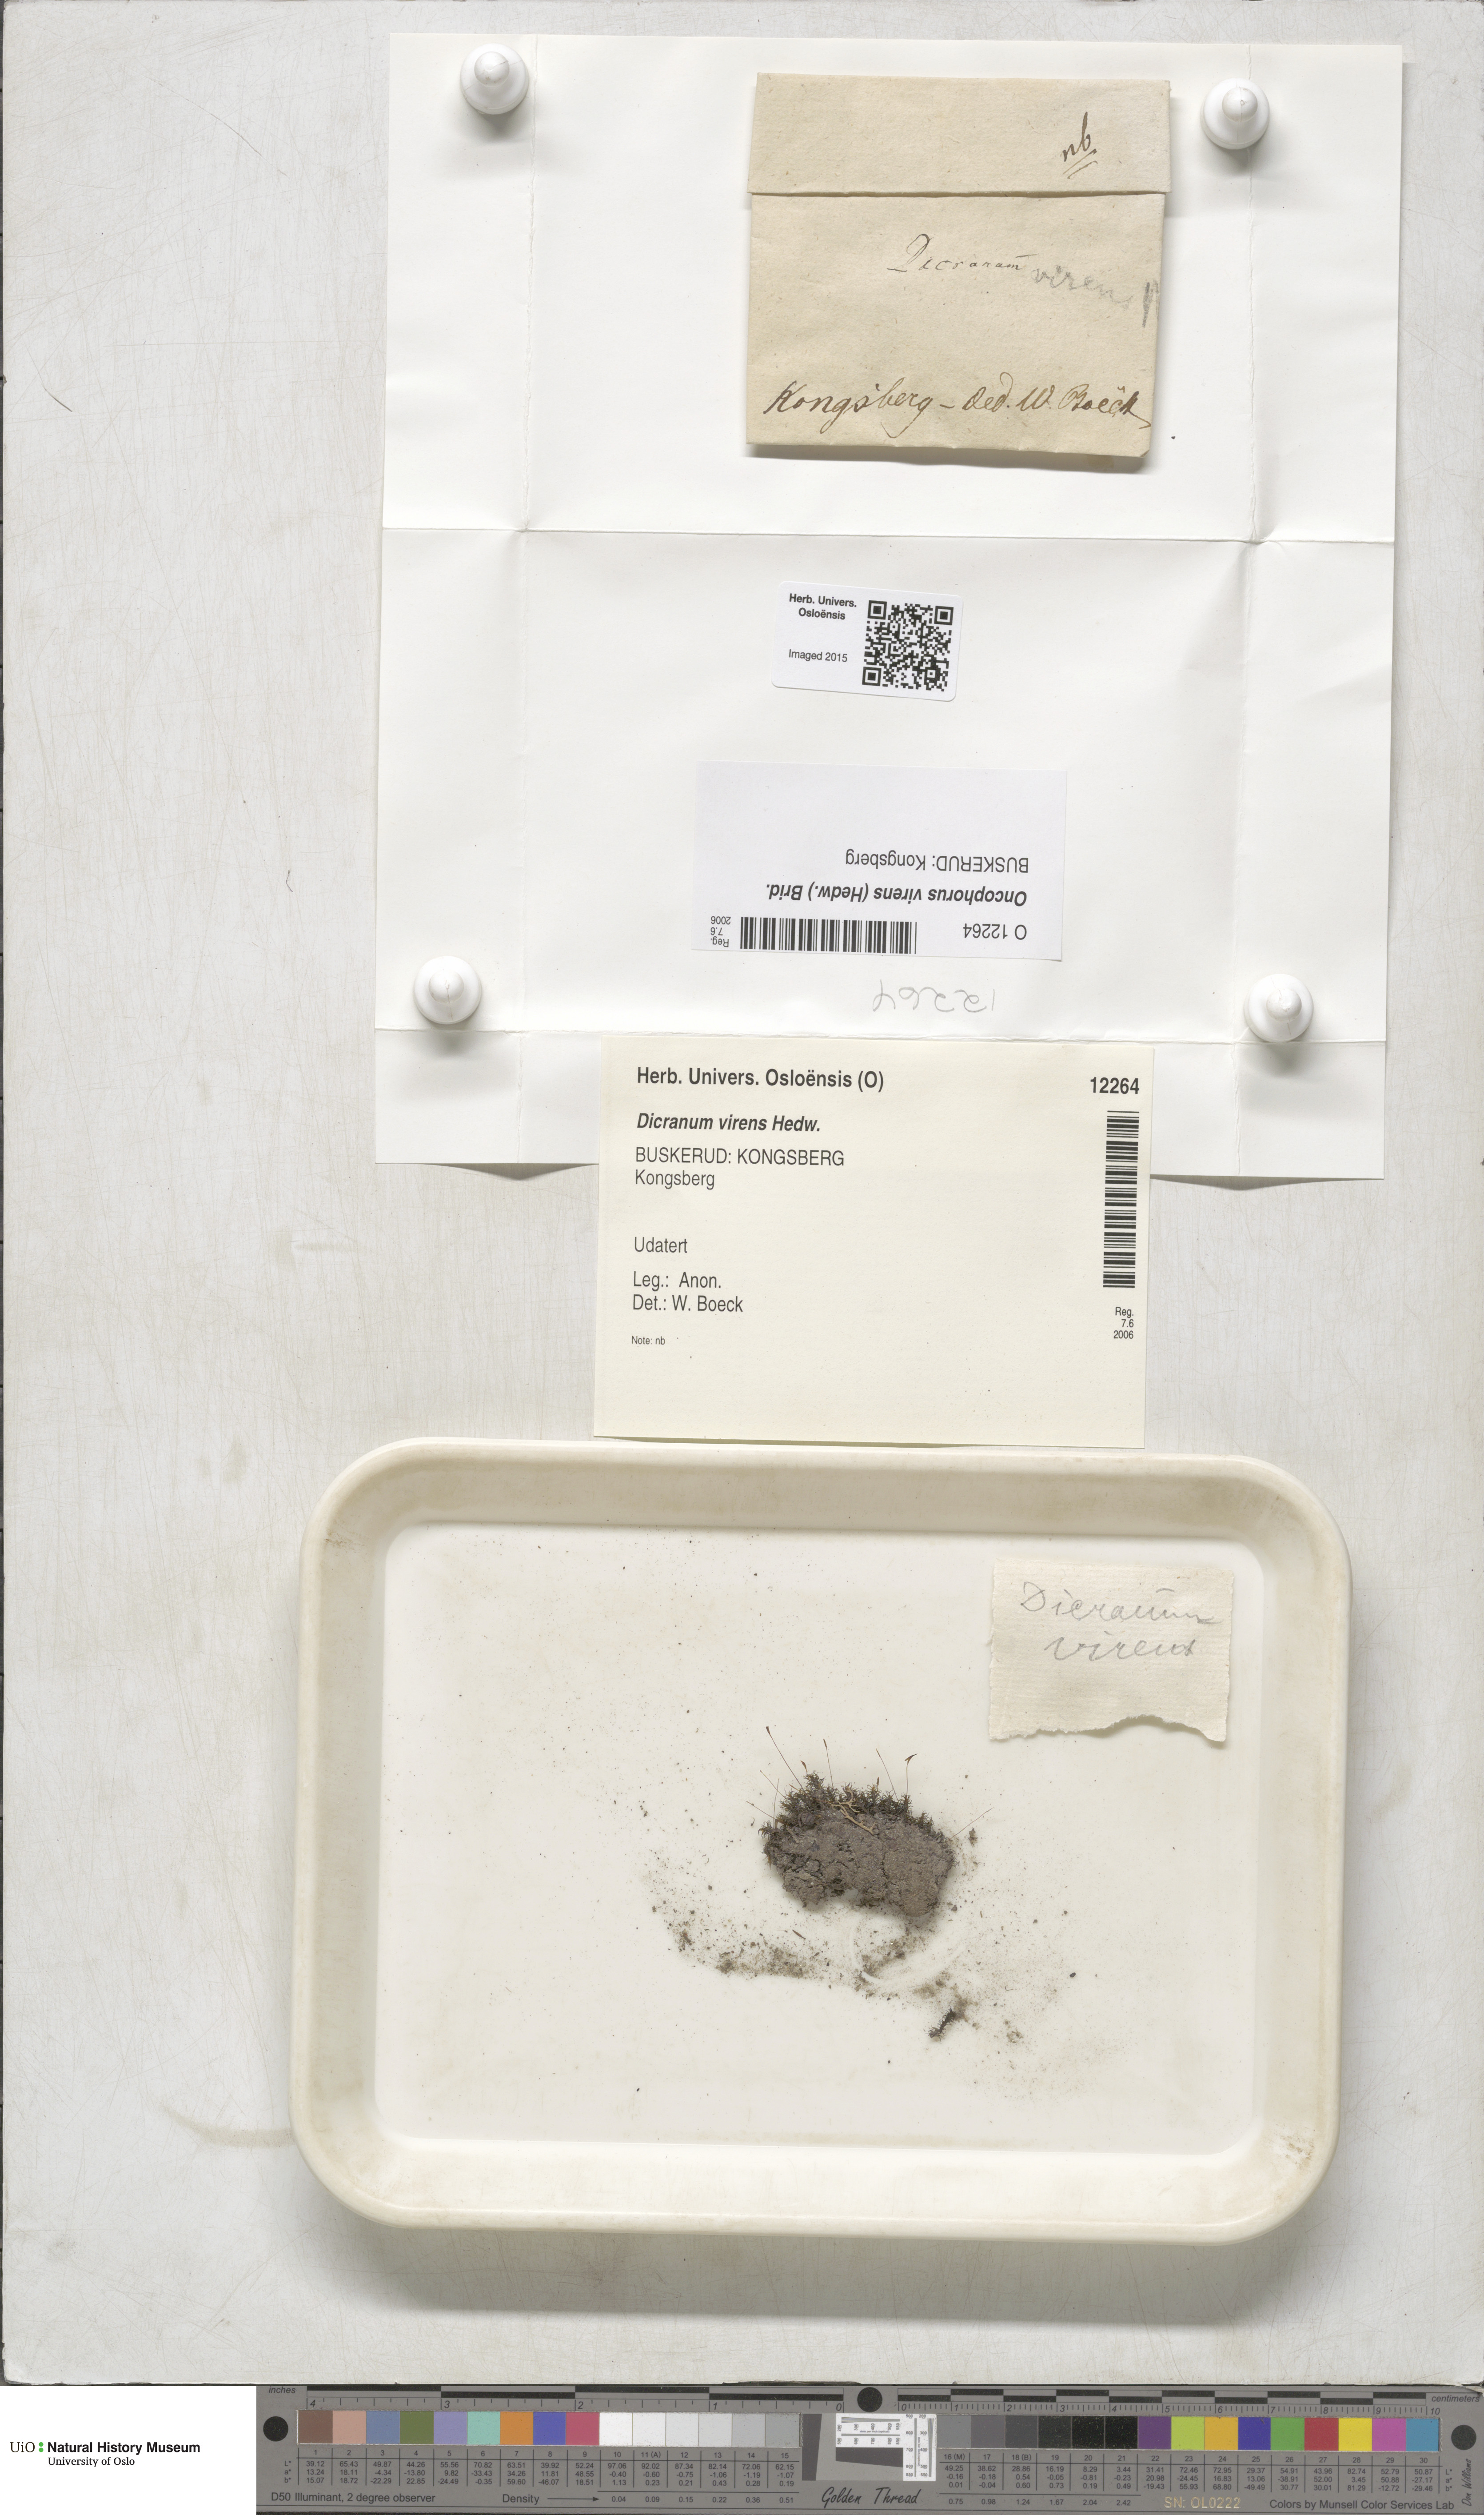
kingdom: Plantae
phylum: Bryophyta
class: Bryopsida
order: Dicranales
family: Rhabdoweisiaceae
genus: Oncophorus
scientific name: Oncophorus virens
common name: Green spur moss
